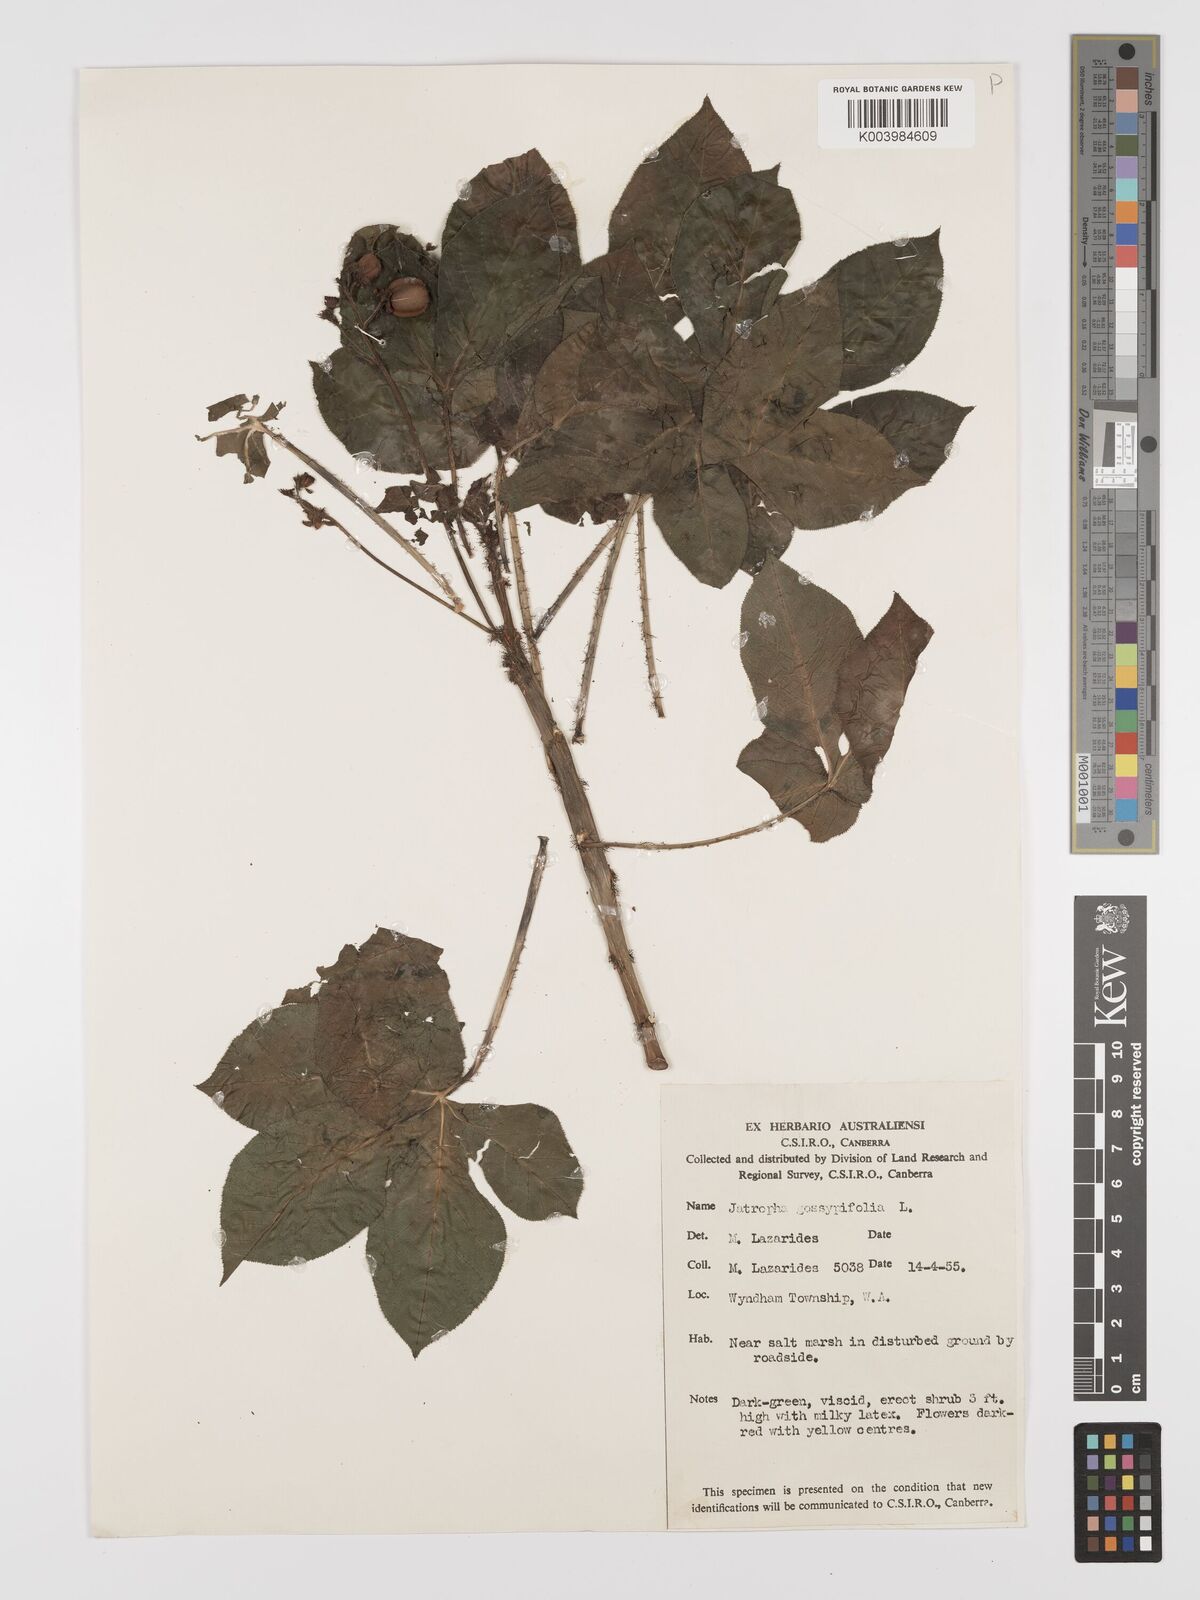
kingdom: Plantae
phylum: Tracheophyta
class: Magnoliopsida
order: Malpighiales
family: Euphorbiaceae
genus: Jatropha
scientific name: Jatropha gossypiifolia
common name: Bellyache bush
